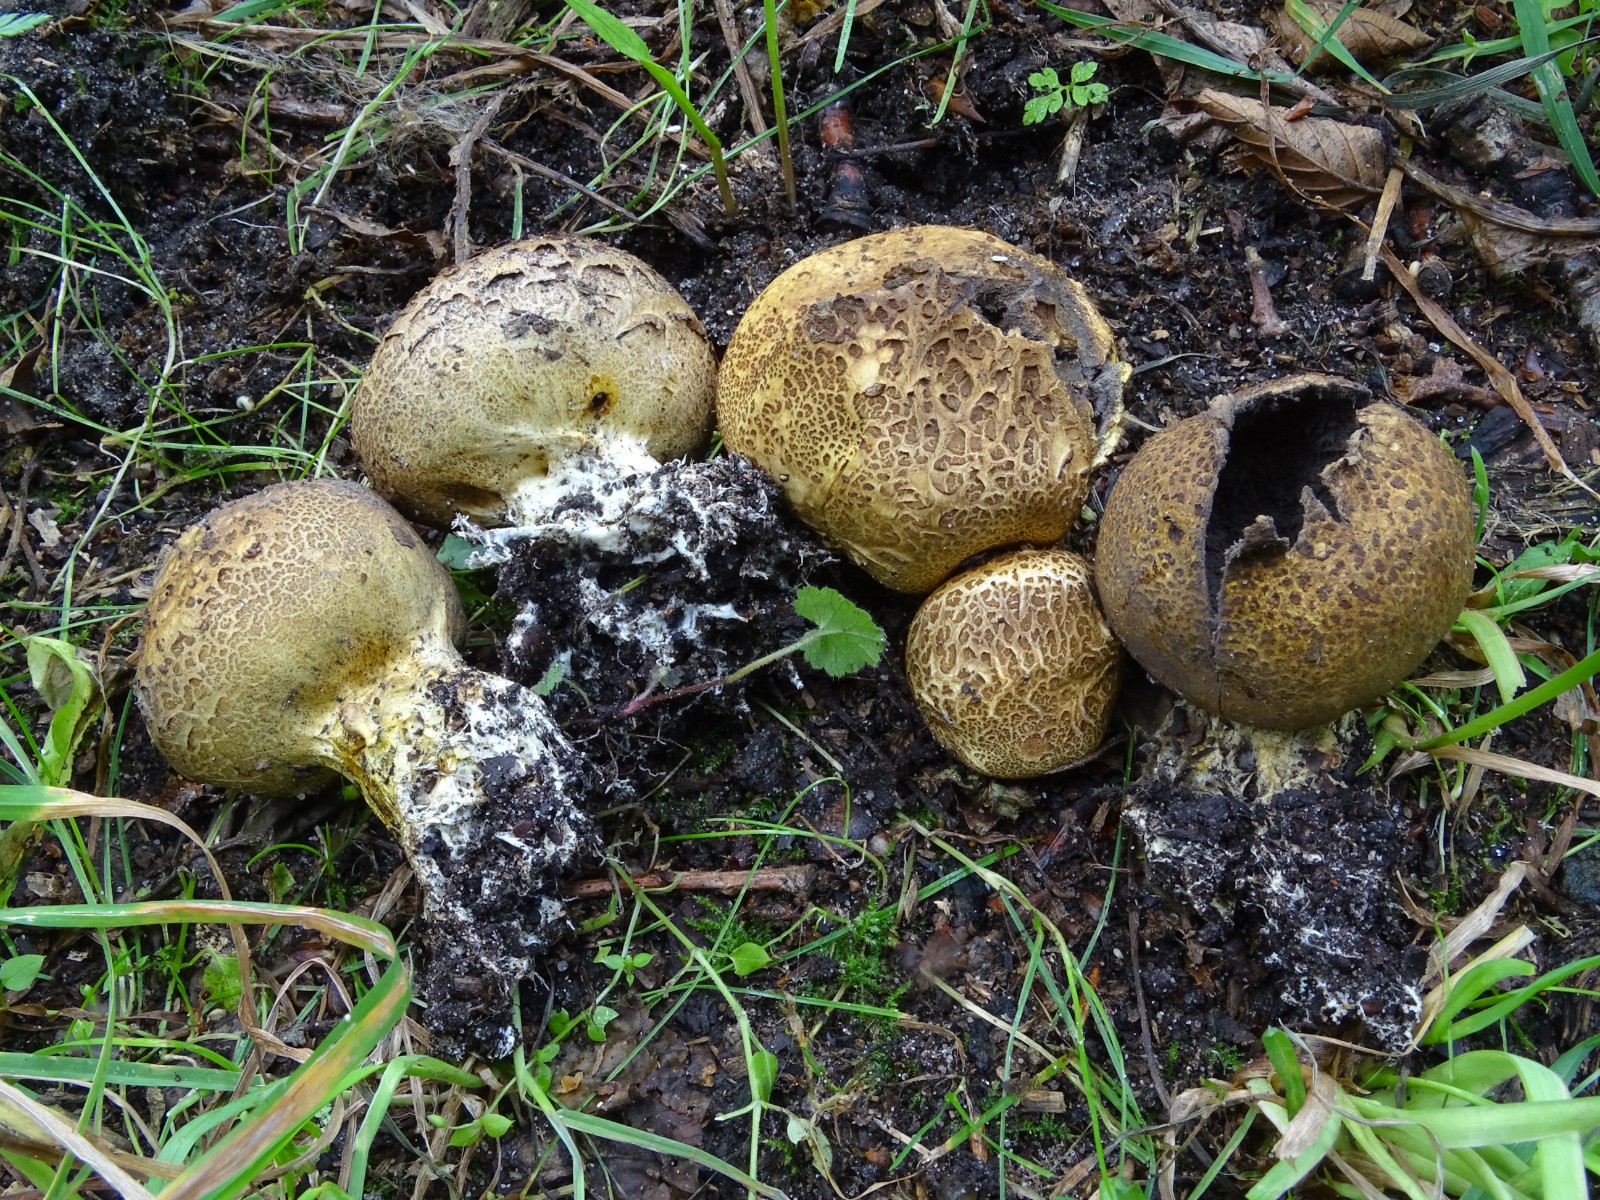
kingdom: Fungi
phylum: Basidiomycota
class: Agaricomycetes
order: Boletales
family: Sclerodermataceae
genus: Scleroderma
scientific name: Scleroderma verrucosum
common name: stilket bruskbold
